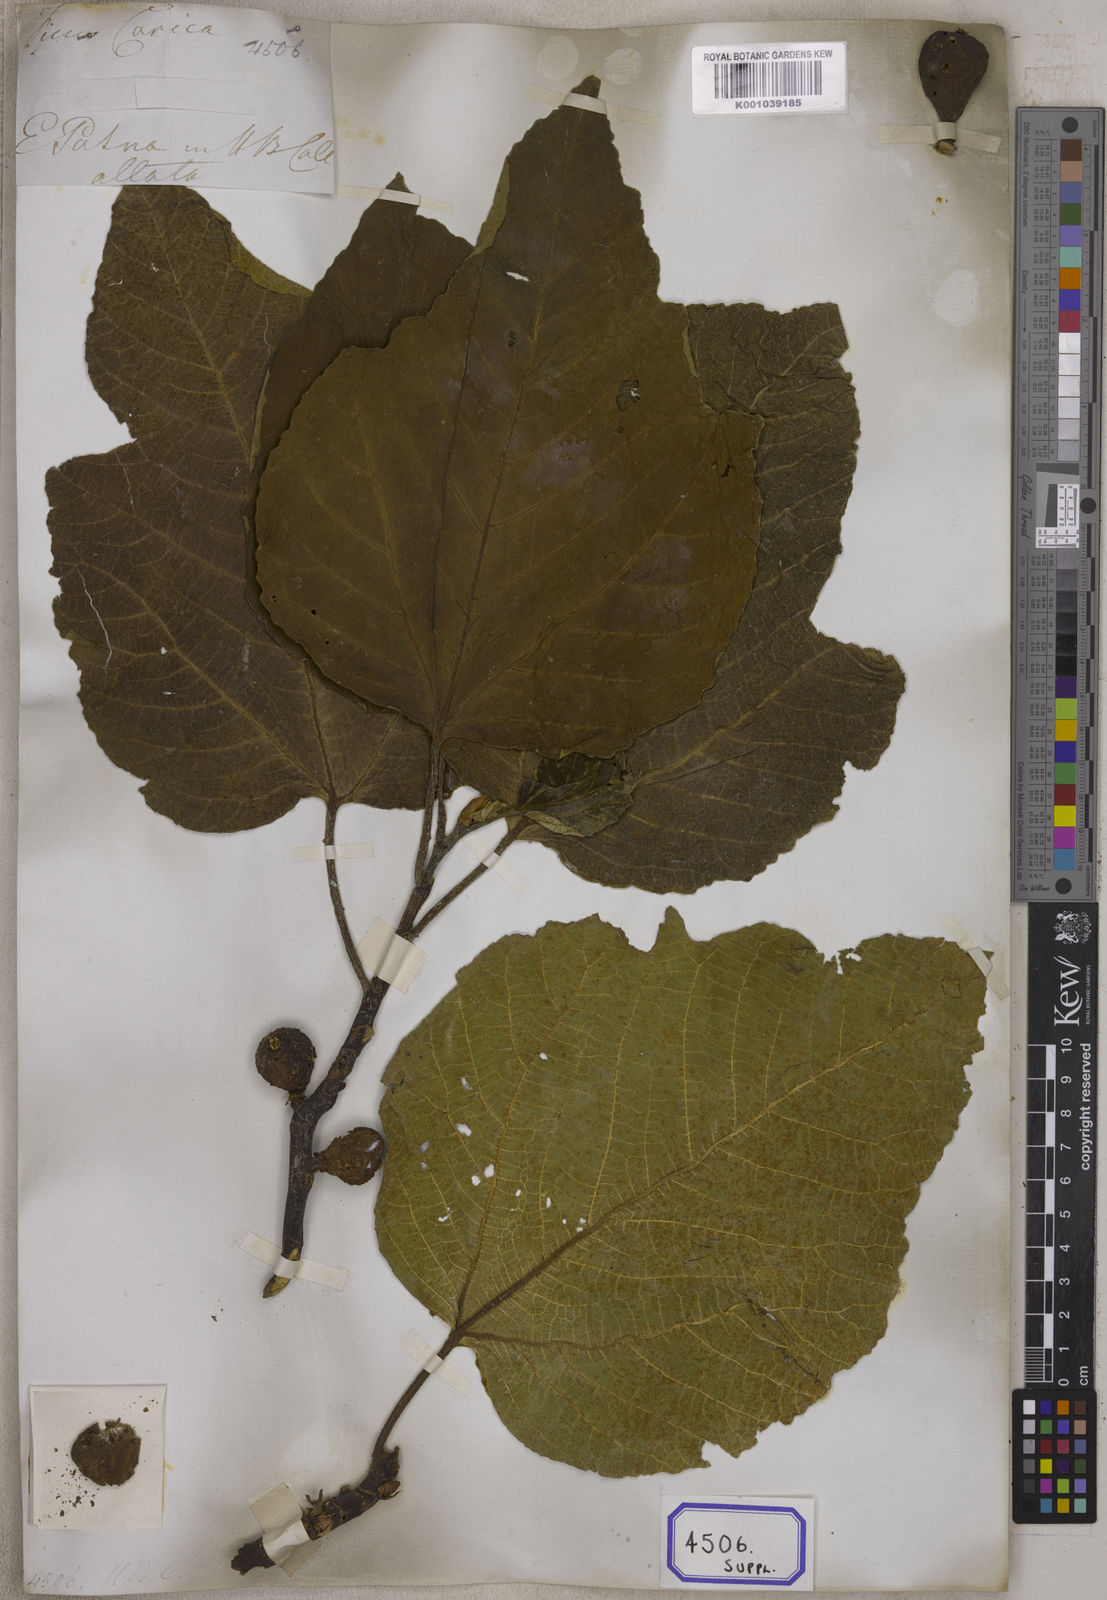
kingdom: Plantae
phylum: Tracheophyta
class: Magnoliopsida
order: Rosales
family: Moraceae
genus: Ficus
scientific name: Ficus carica
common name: Fig
